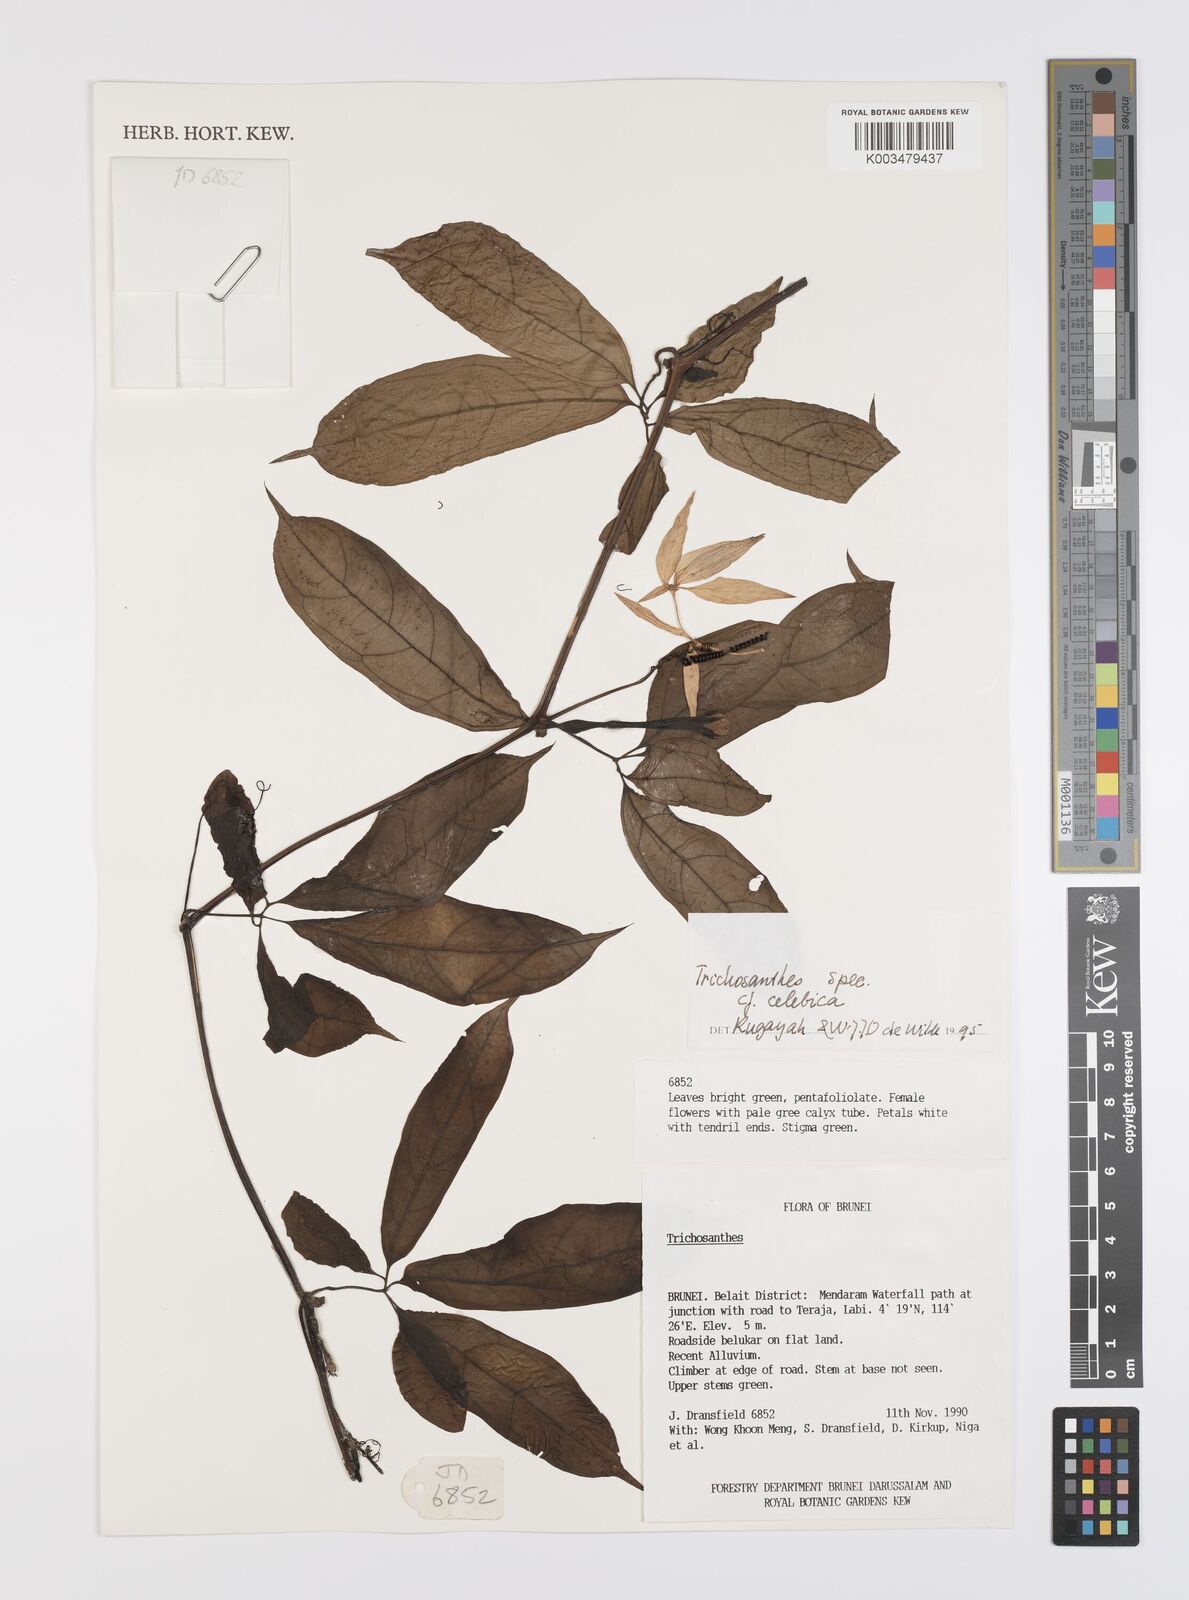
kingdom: Plantae
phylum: Tracheophyta
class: Magnoliopsida
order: Cucurbitales
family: Cucurbitaceae
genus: Trichosanthes
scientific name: Trichosanthes celebica
